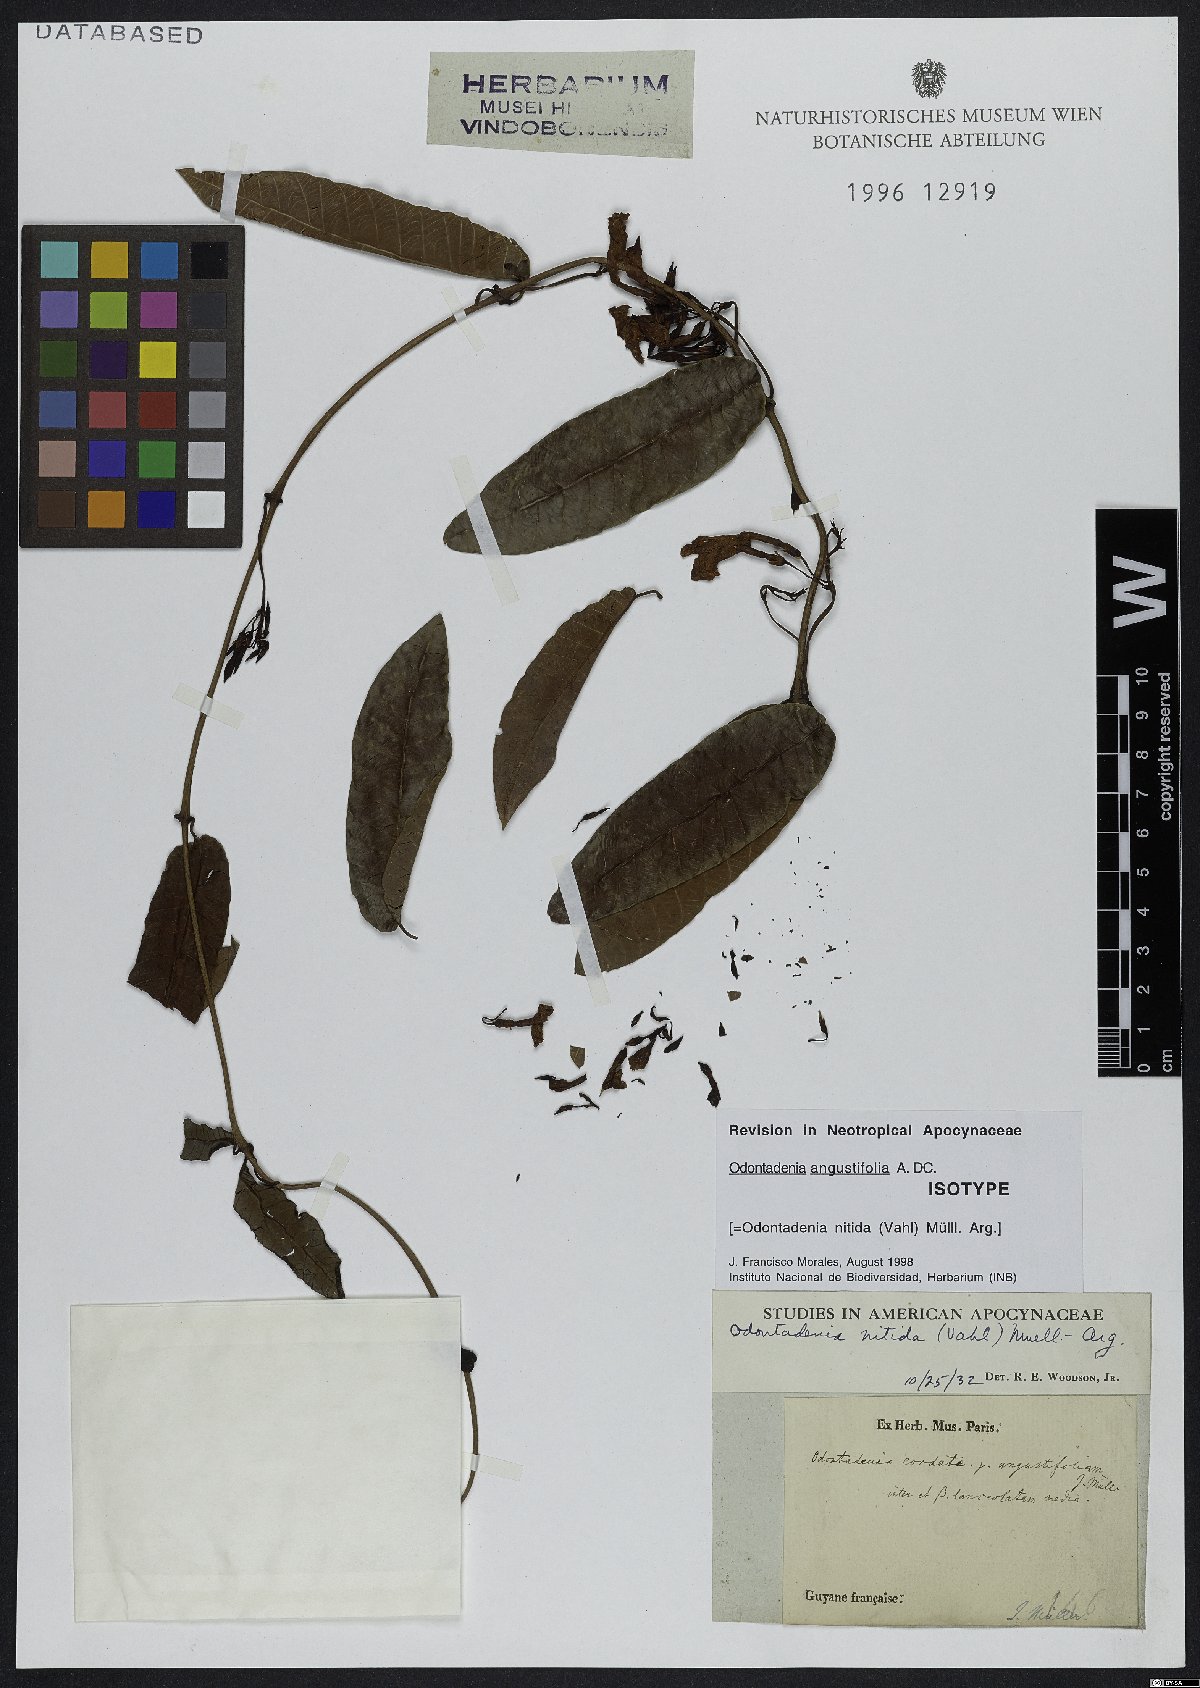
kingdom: Plantae
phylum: Tracheophyta
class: Magnoliopsida
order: Gentianales
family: Apocynaceae
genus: Odontadenia
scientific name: Odontadenia nitida
